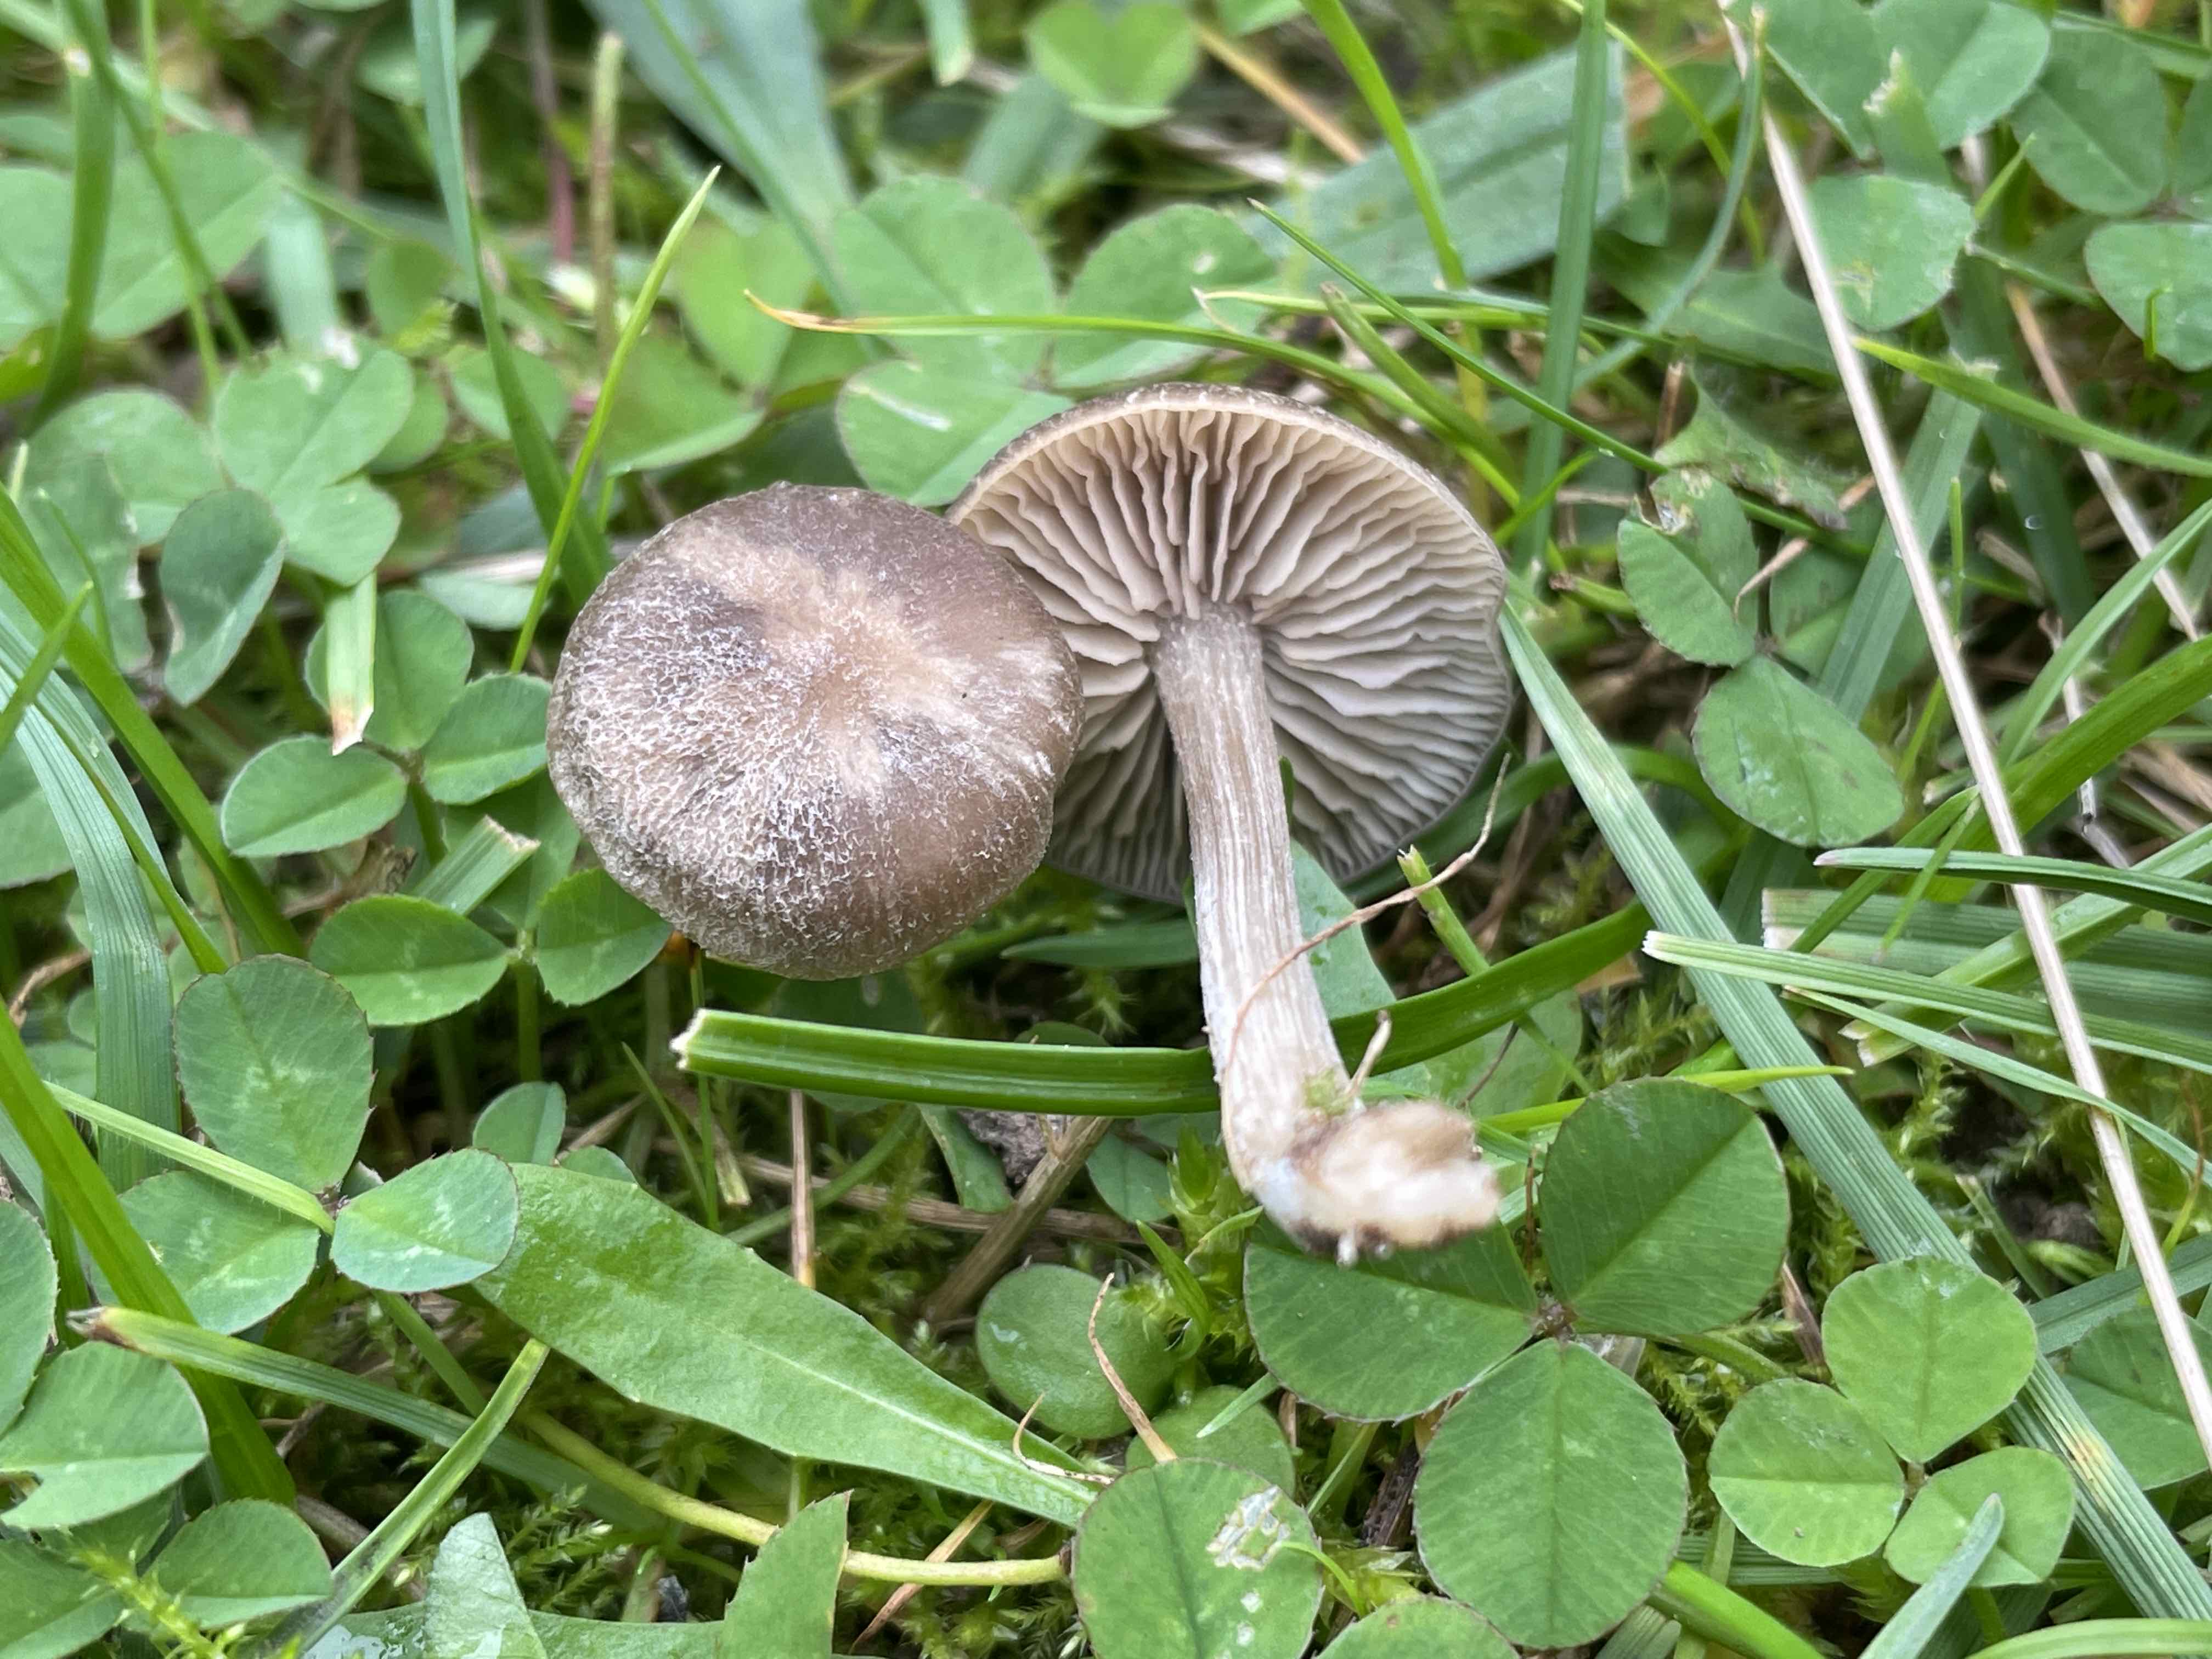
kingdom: Fungi
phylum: Basidiomycota
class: Agaricomycetes
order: Agaricales
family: Entolomataceae
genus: Entoloma
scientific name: Entoloma
